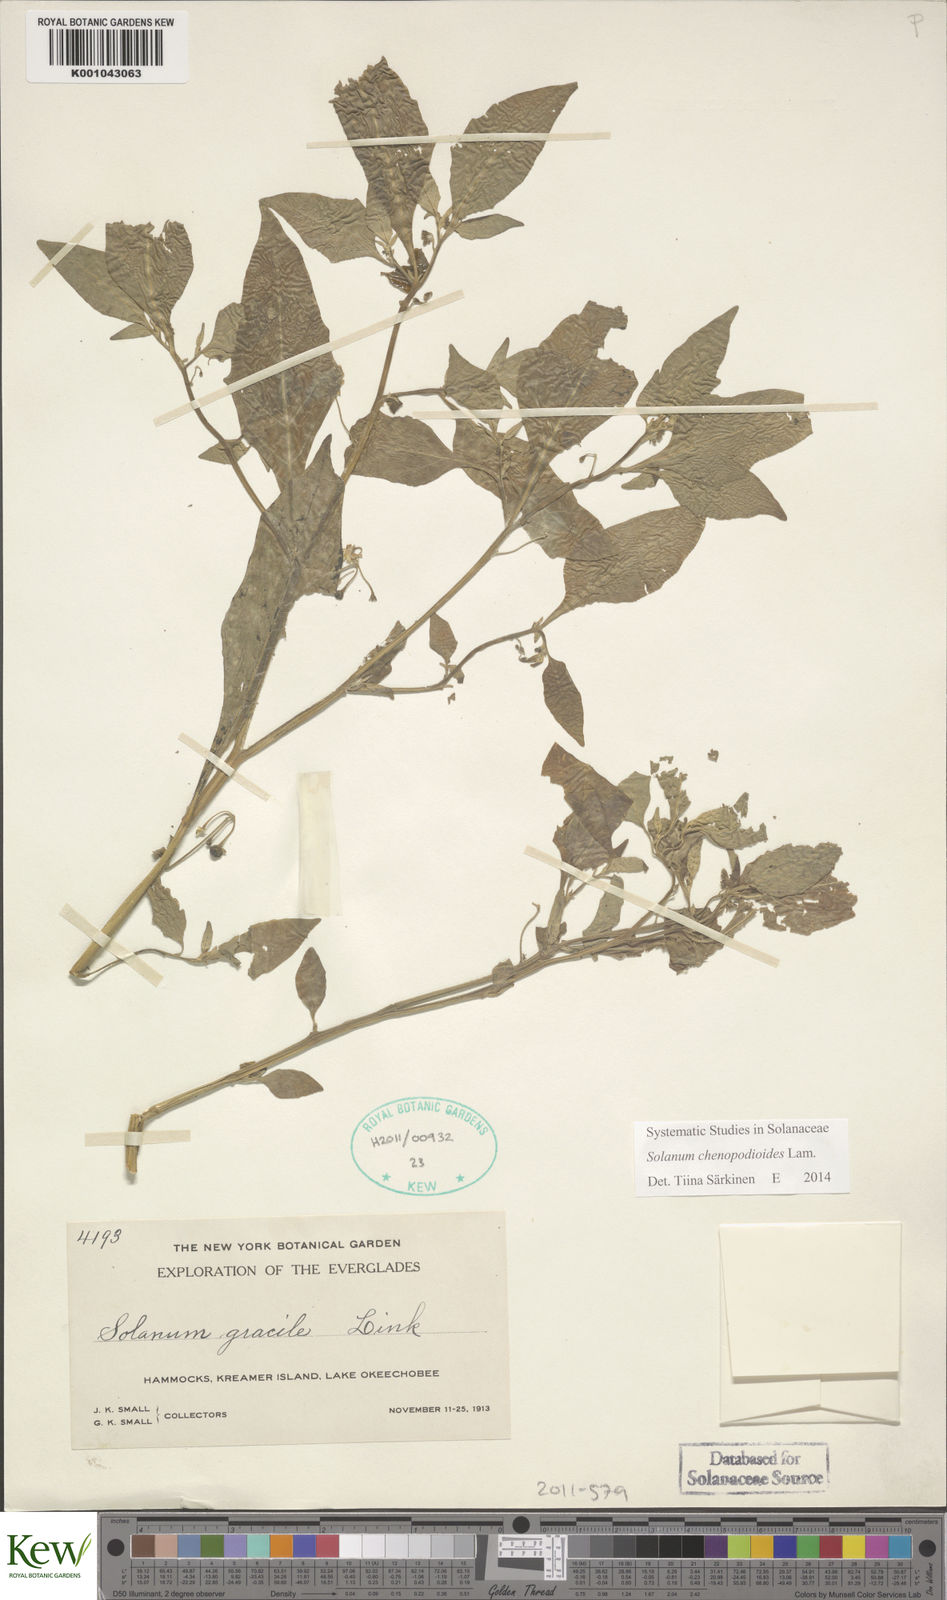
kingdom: Plantae
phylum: Tracheophyta
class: Magnoliopsida
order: Solanales
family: Solanaceae
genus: Solanum
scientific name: Solanum nigrescens
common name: Divine nightshade
